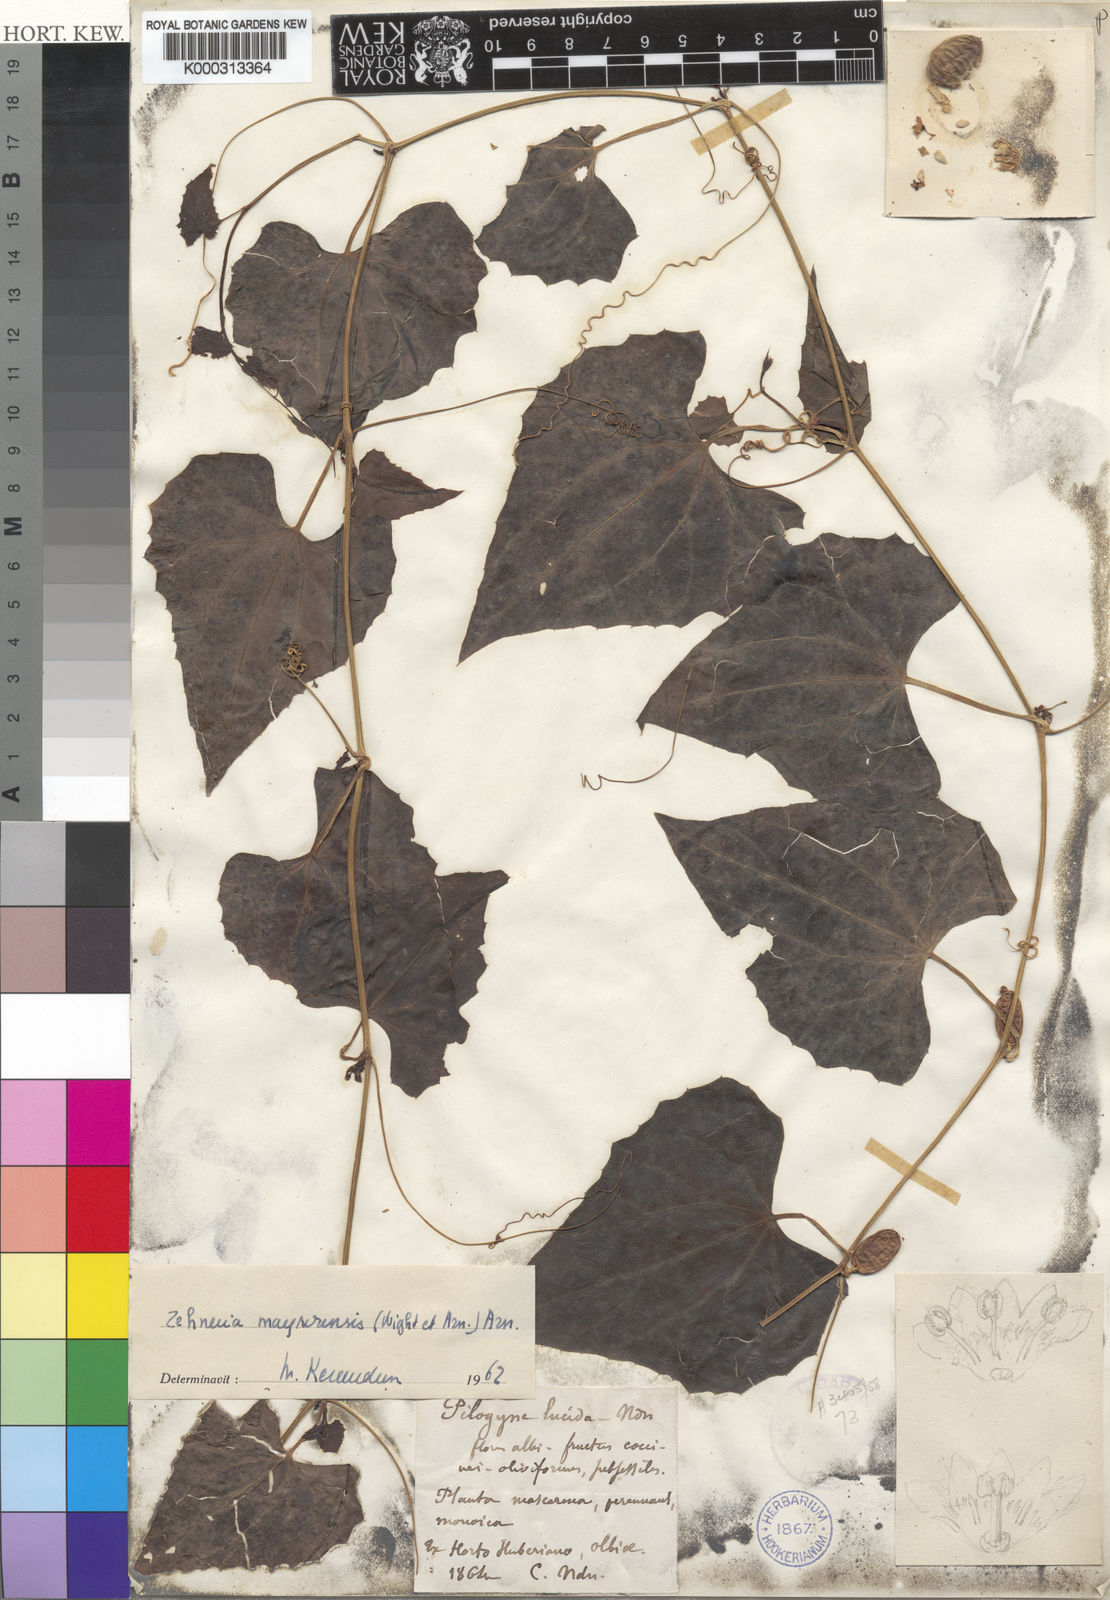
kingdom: Plantae
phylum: Tracheophyta
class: Magnoliopsida
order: Cucurbitales
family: Cucurbitaceae
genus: Zehneria
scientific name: Zehneria maysorensis
